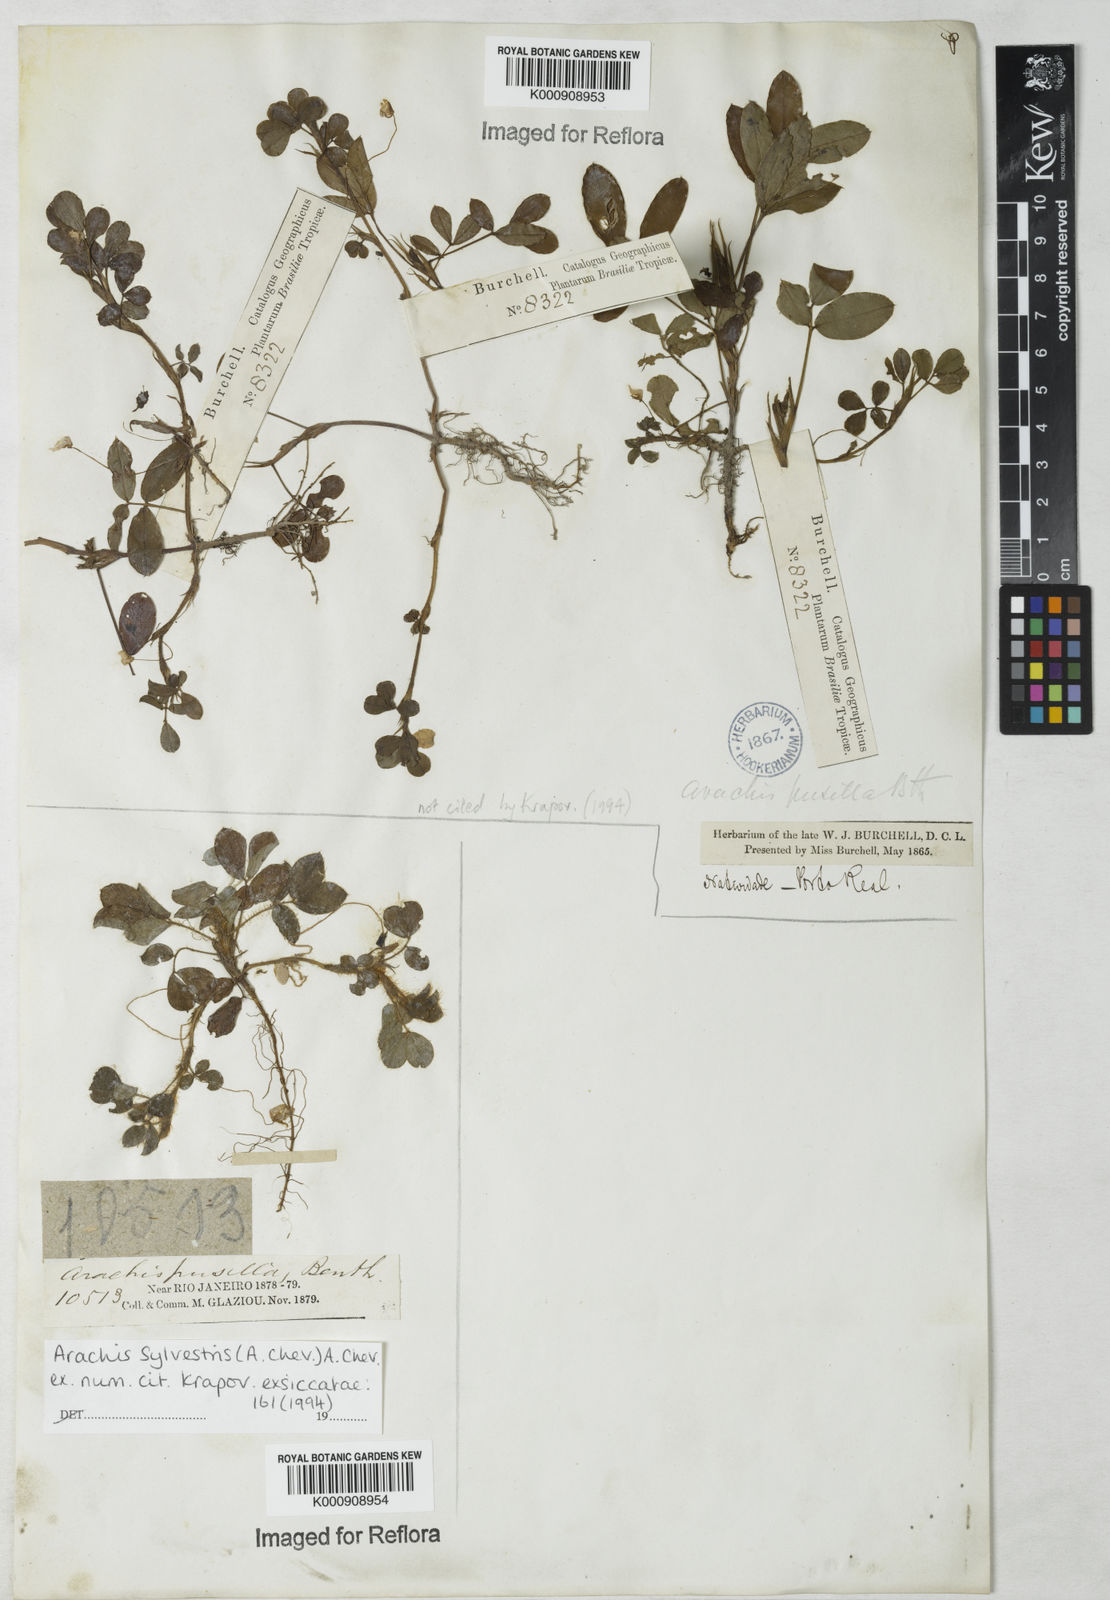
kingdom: Plantae
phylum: Tracheophyta
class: Magnoliopsida
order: Fabales
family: Fabaceae
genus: Arachis
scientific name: Arachis pusilla
